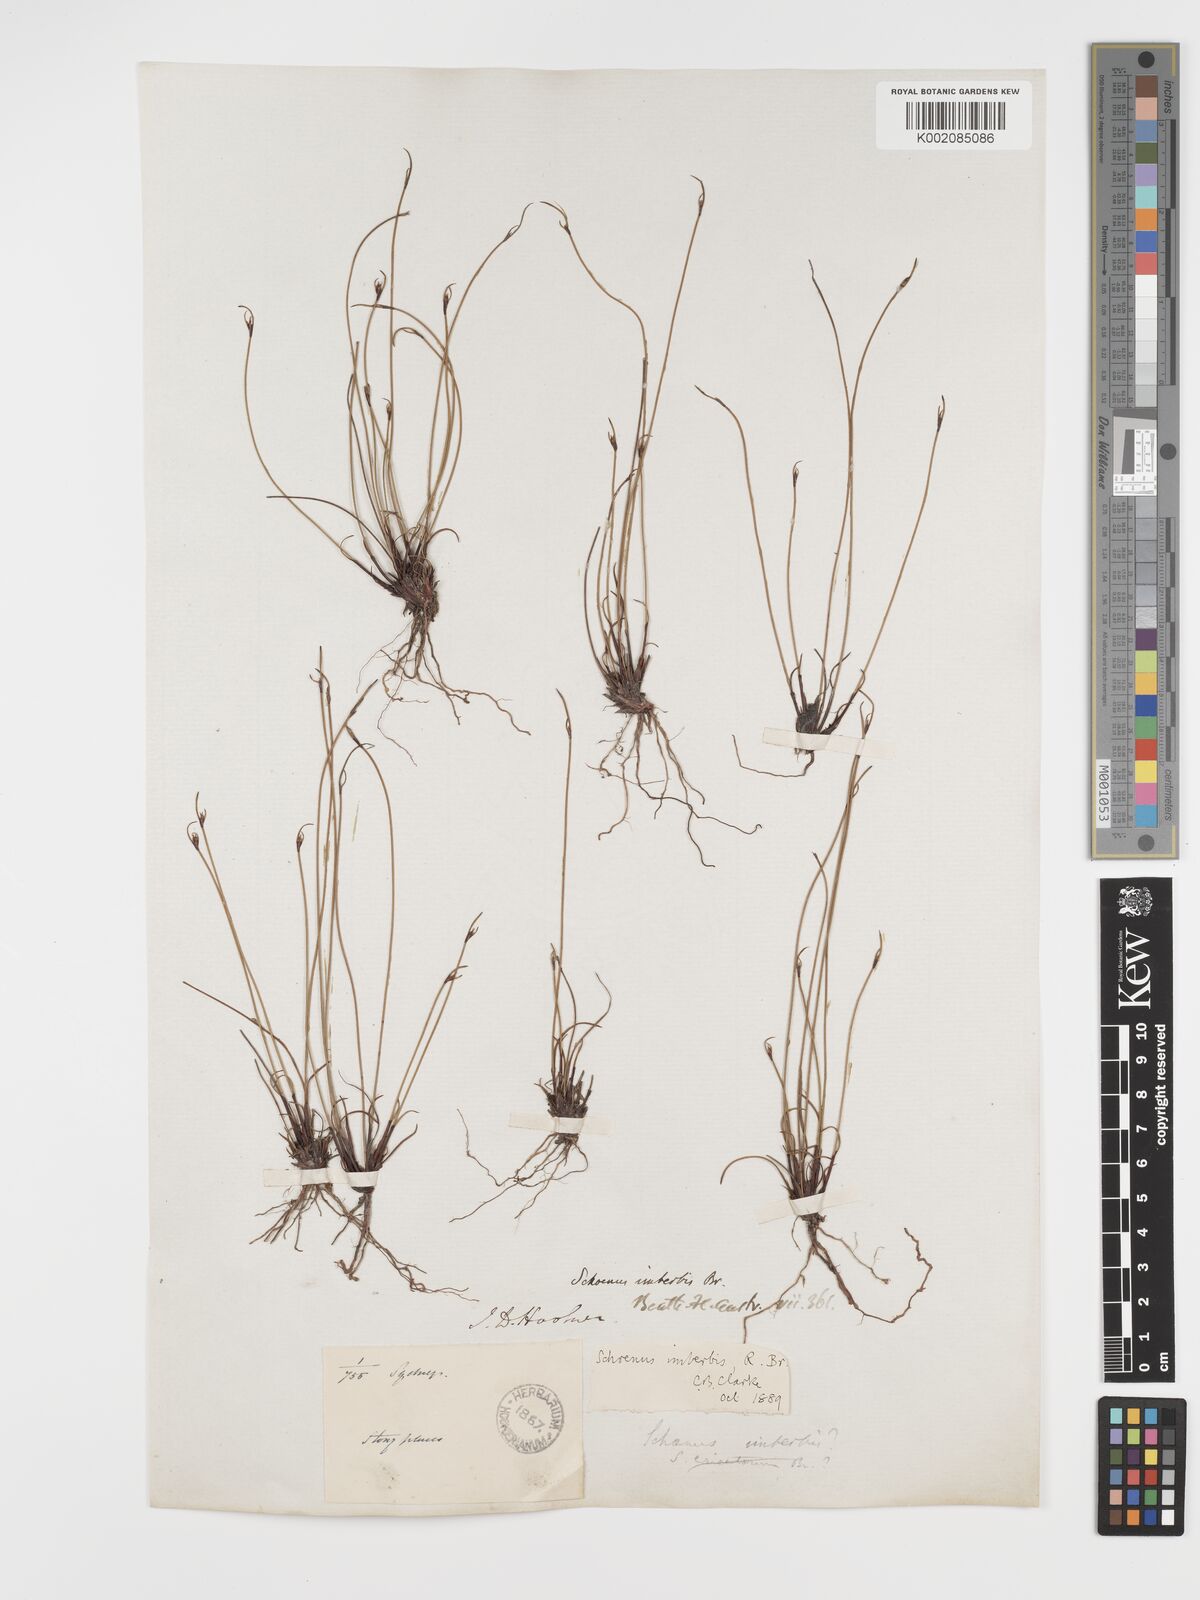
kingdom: Plantae
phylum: Tracheophyta
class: Liliopsida
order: Poales
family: Cyperaceae
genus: Schoenus
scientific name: Schoenus imberbis
